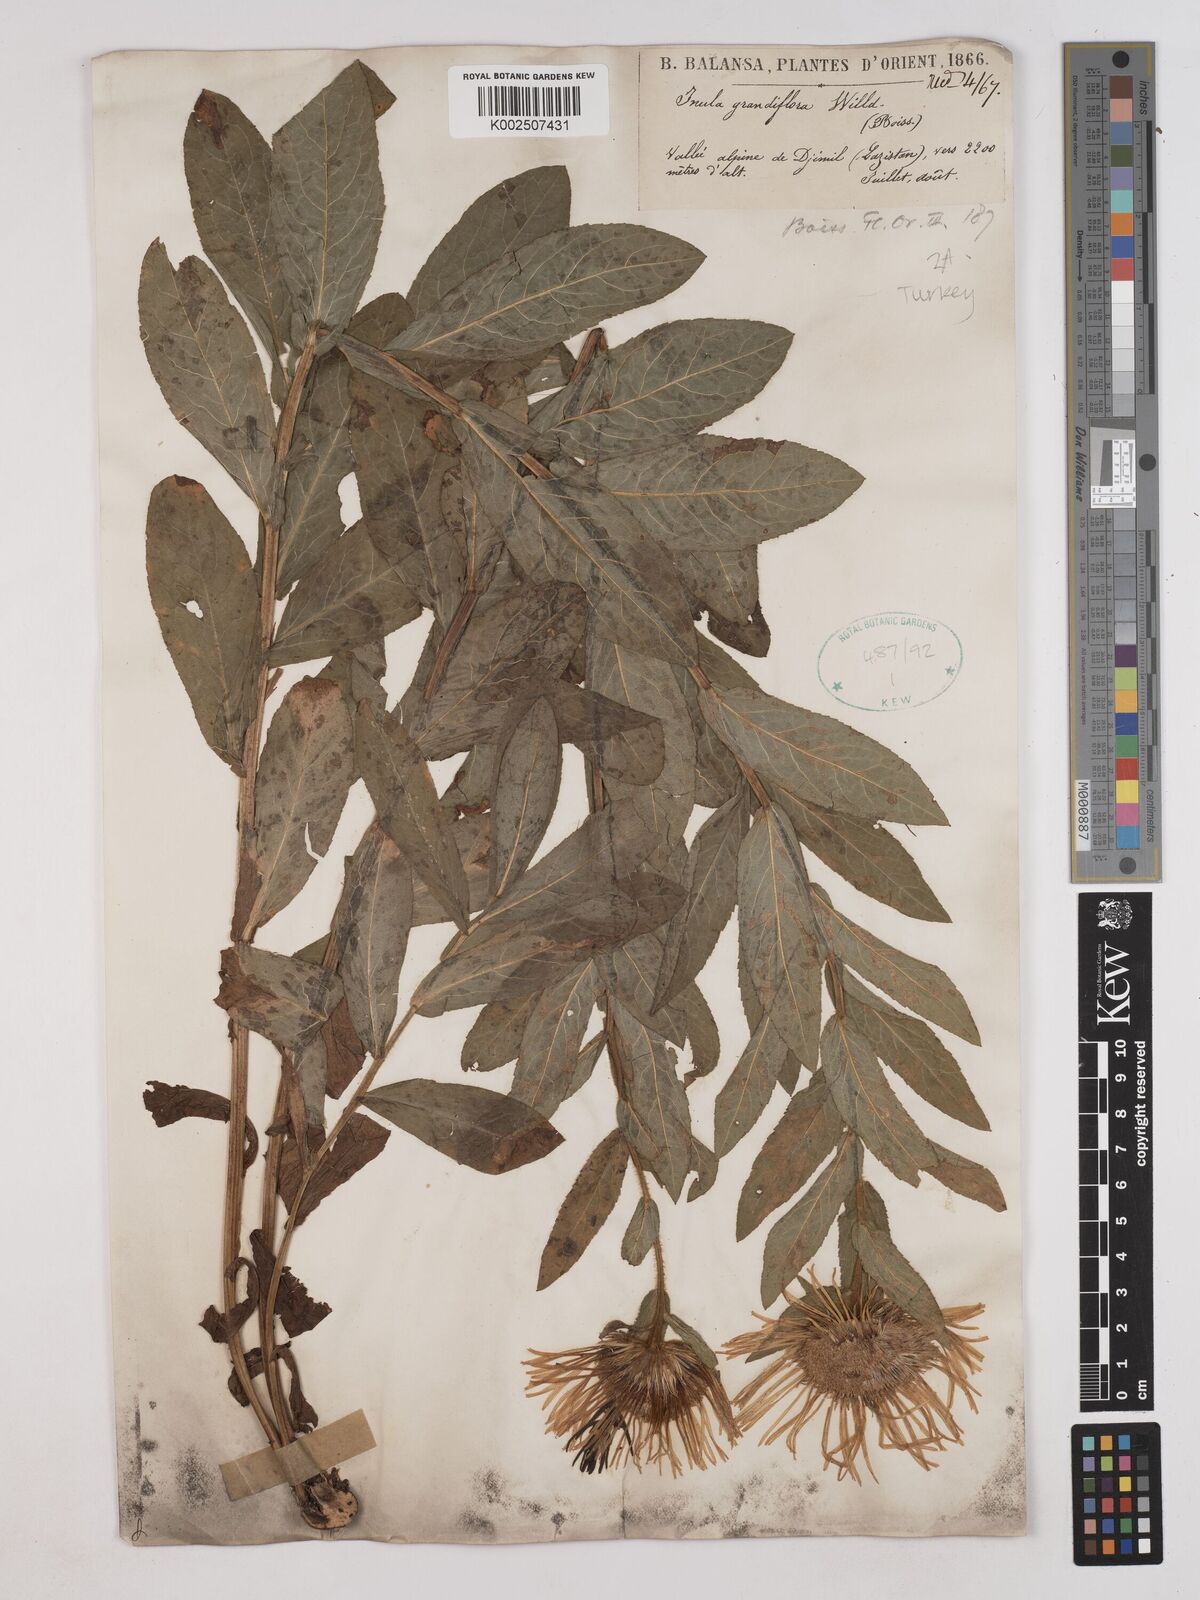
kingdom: Plantae
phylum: Tracheophyta
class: Magnoliopsida
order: Asterales
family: Asteraceae
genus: Pentanema
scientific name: Pentanema orientale
